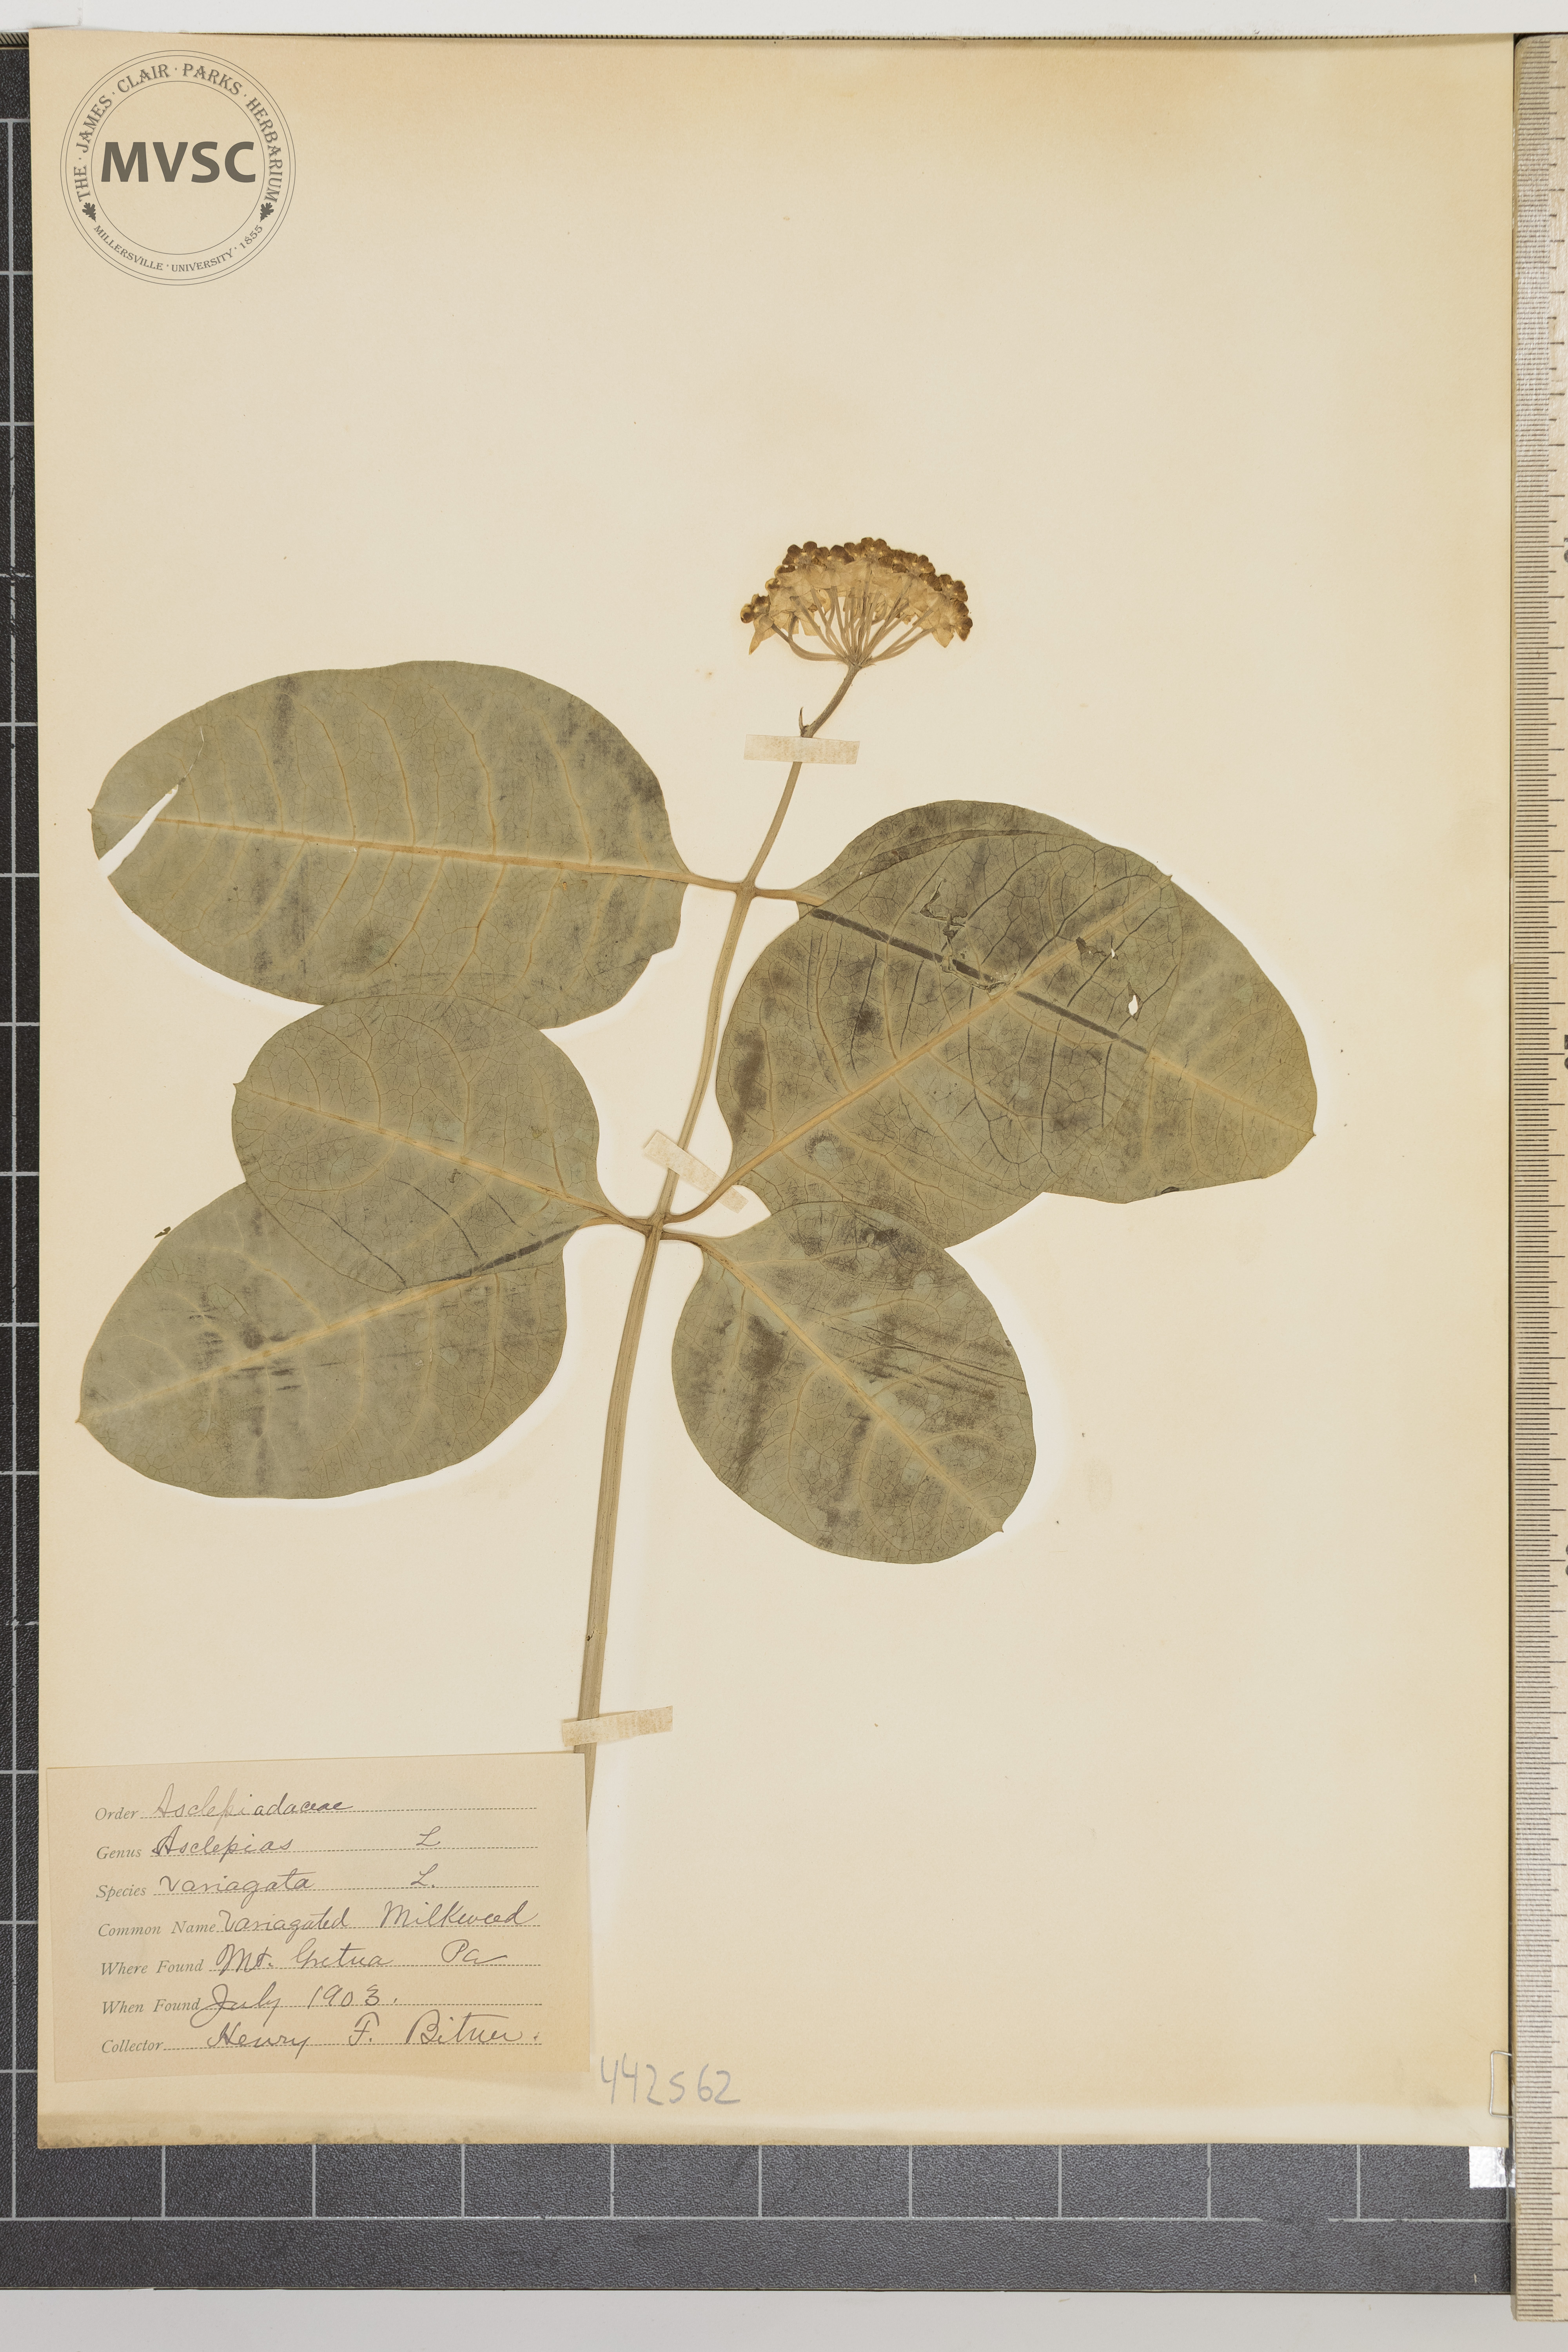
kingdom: Plantae
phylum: Tracheophyta
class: Magnoliopsida
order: Gentianales
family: Apocynaceae
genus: Asclepias
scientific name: Asclepias variegata
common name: Variegated milkweed
